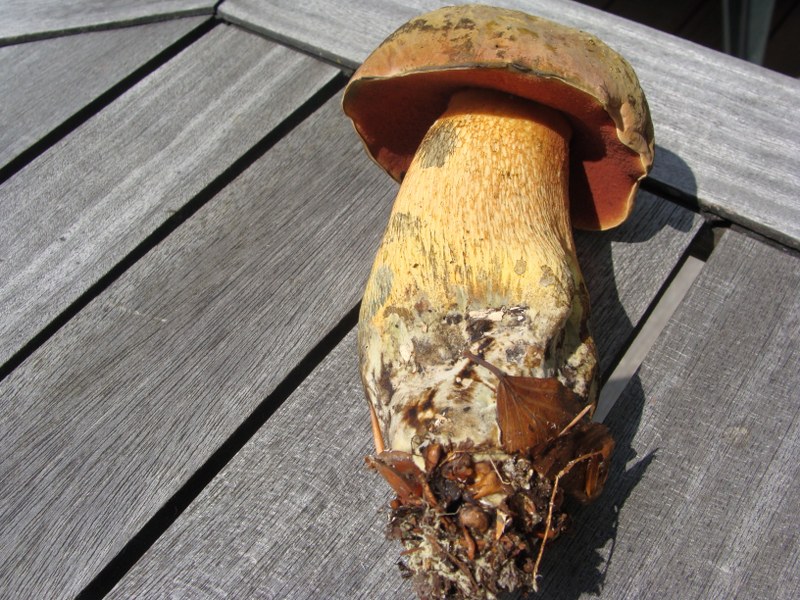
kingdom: Fungi
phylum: Basidiomycota
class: Agaricomycetes
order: Boletales
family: Boletaceae
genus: Suillellus
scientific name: Suillellus luridus
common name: netstokket indigorørhat
